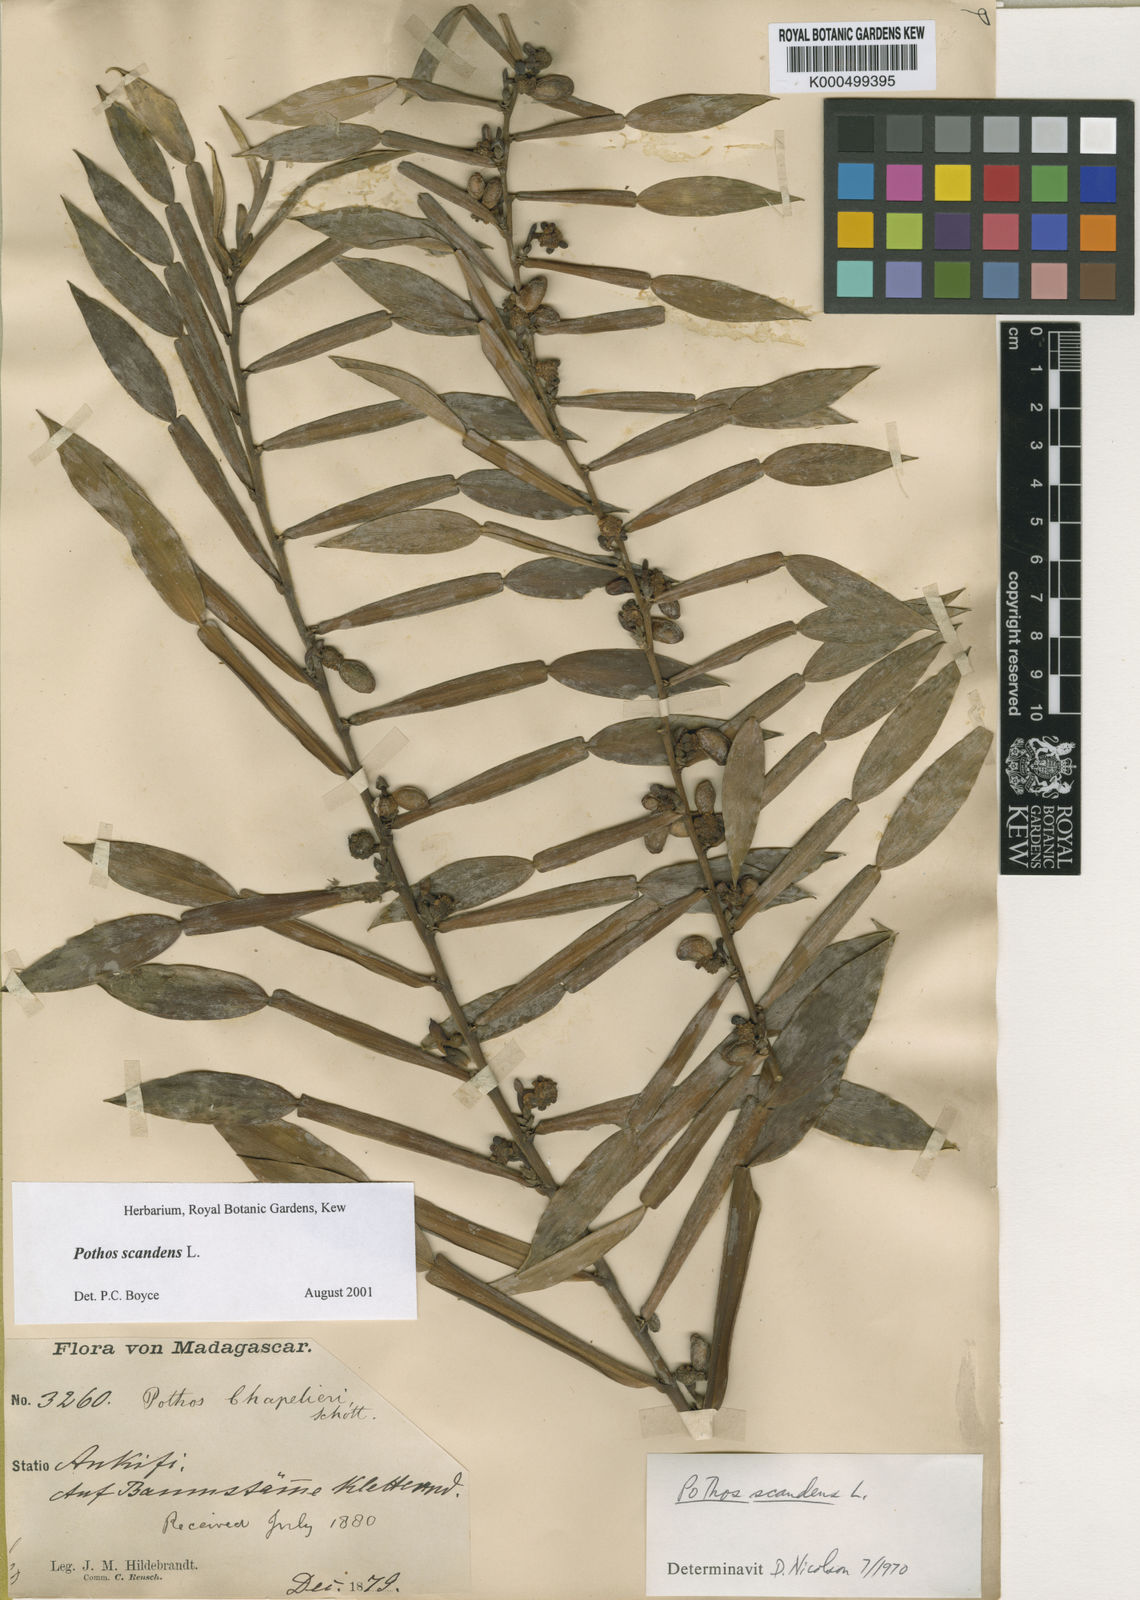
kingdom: Plantae
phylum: Tracheophyta
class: Liliopsida
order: Alismatales
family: Araceae
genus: Pothos
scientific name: Pothos scandens
